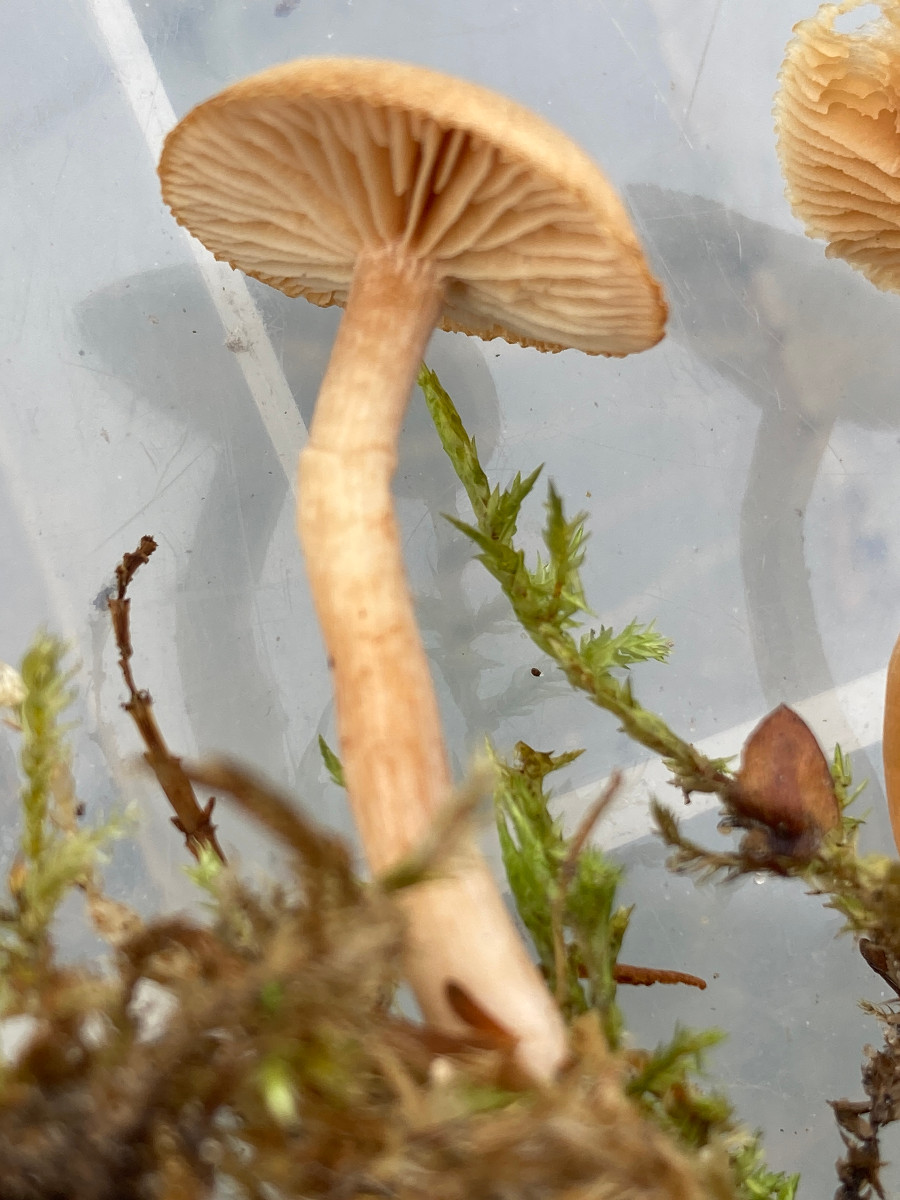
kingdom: Fungi
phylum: Basidiomycota
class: Agaricomycetes
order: Agaricales
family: Tubariaceae
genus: Tubaria
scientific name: Tubaria furfuracea
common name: kliddet fnughat
